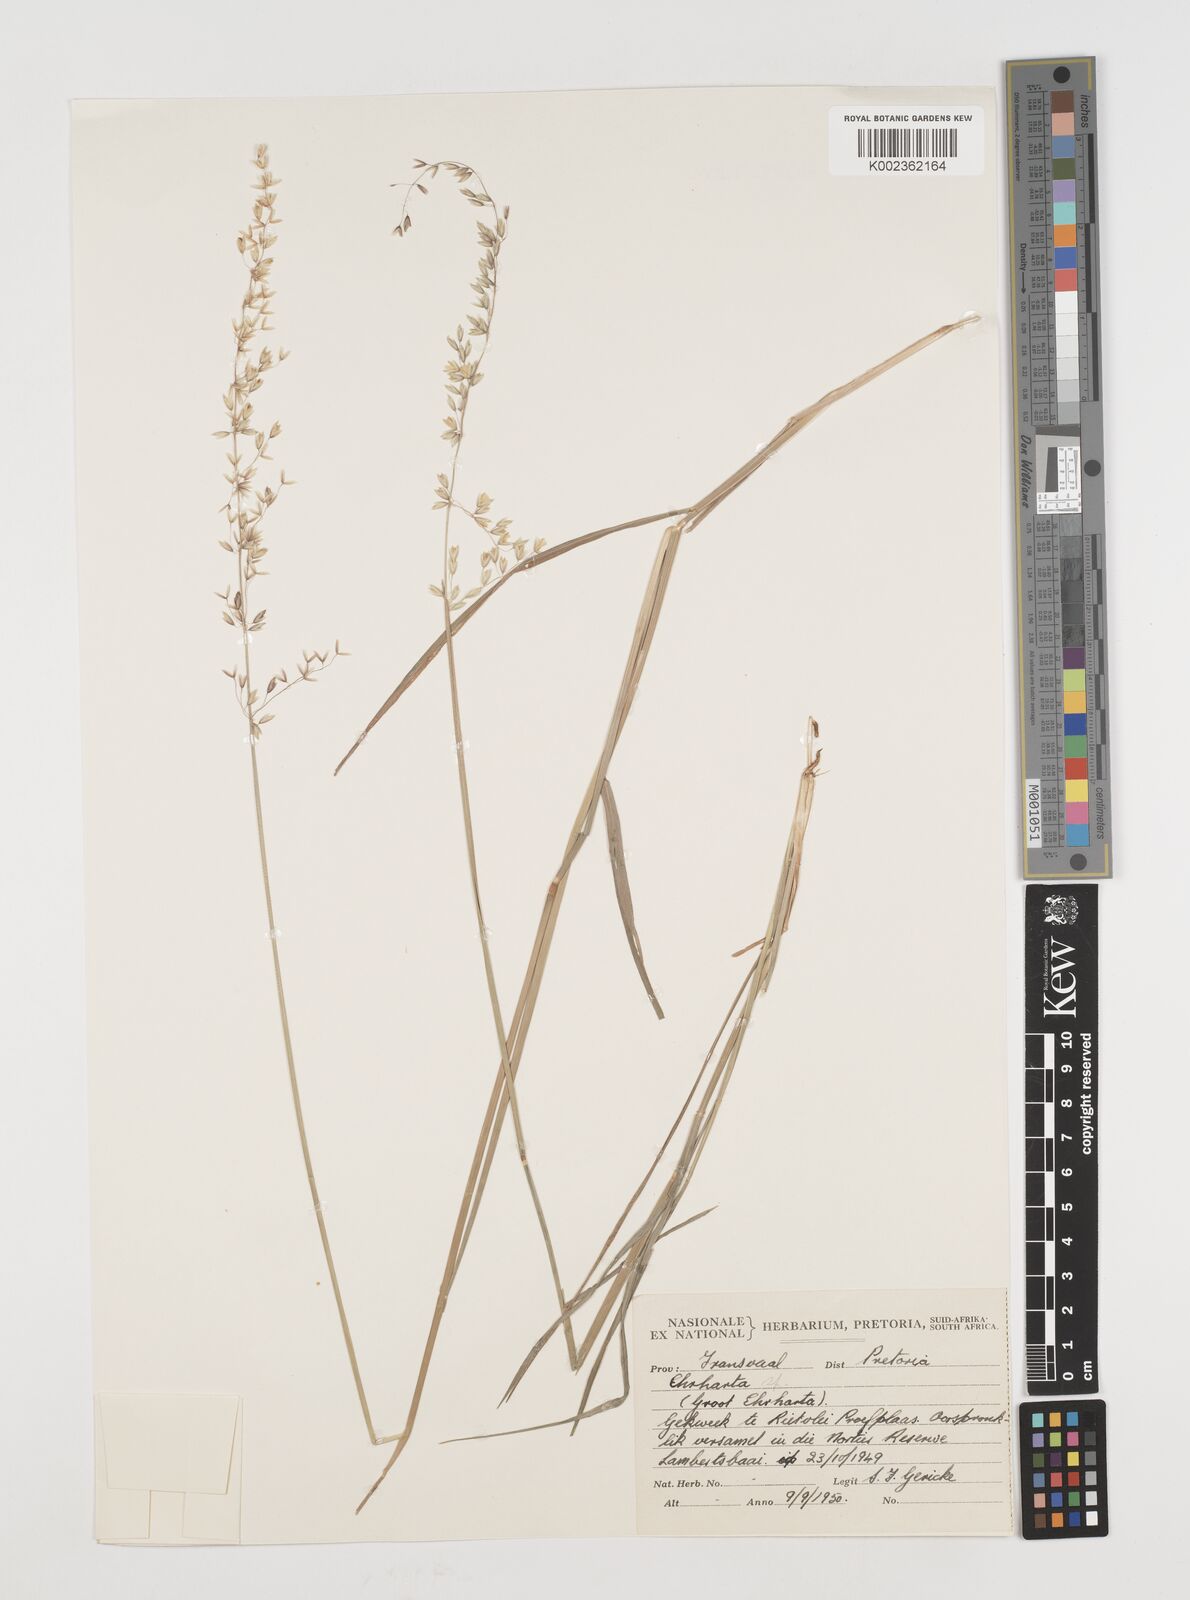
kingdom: Plantae
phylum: Tracheophyta
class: Liliopsida
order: Poales
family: Poaceae
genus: Ehrharta
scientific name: Ehrharta
